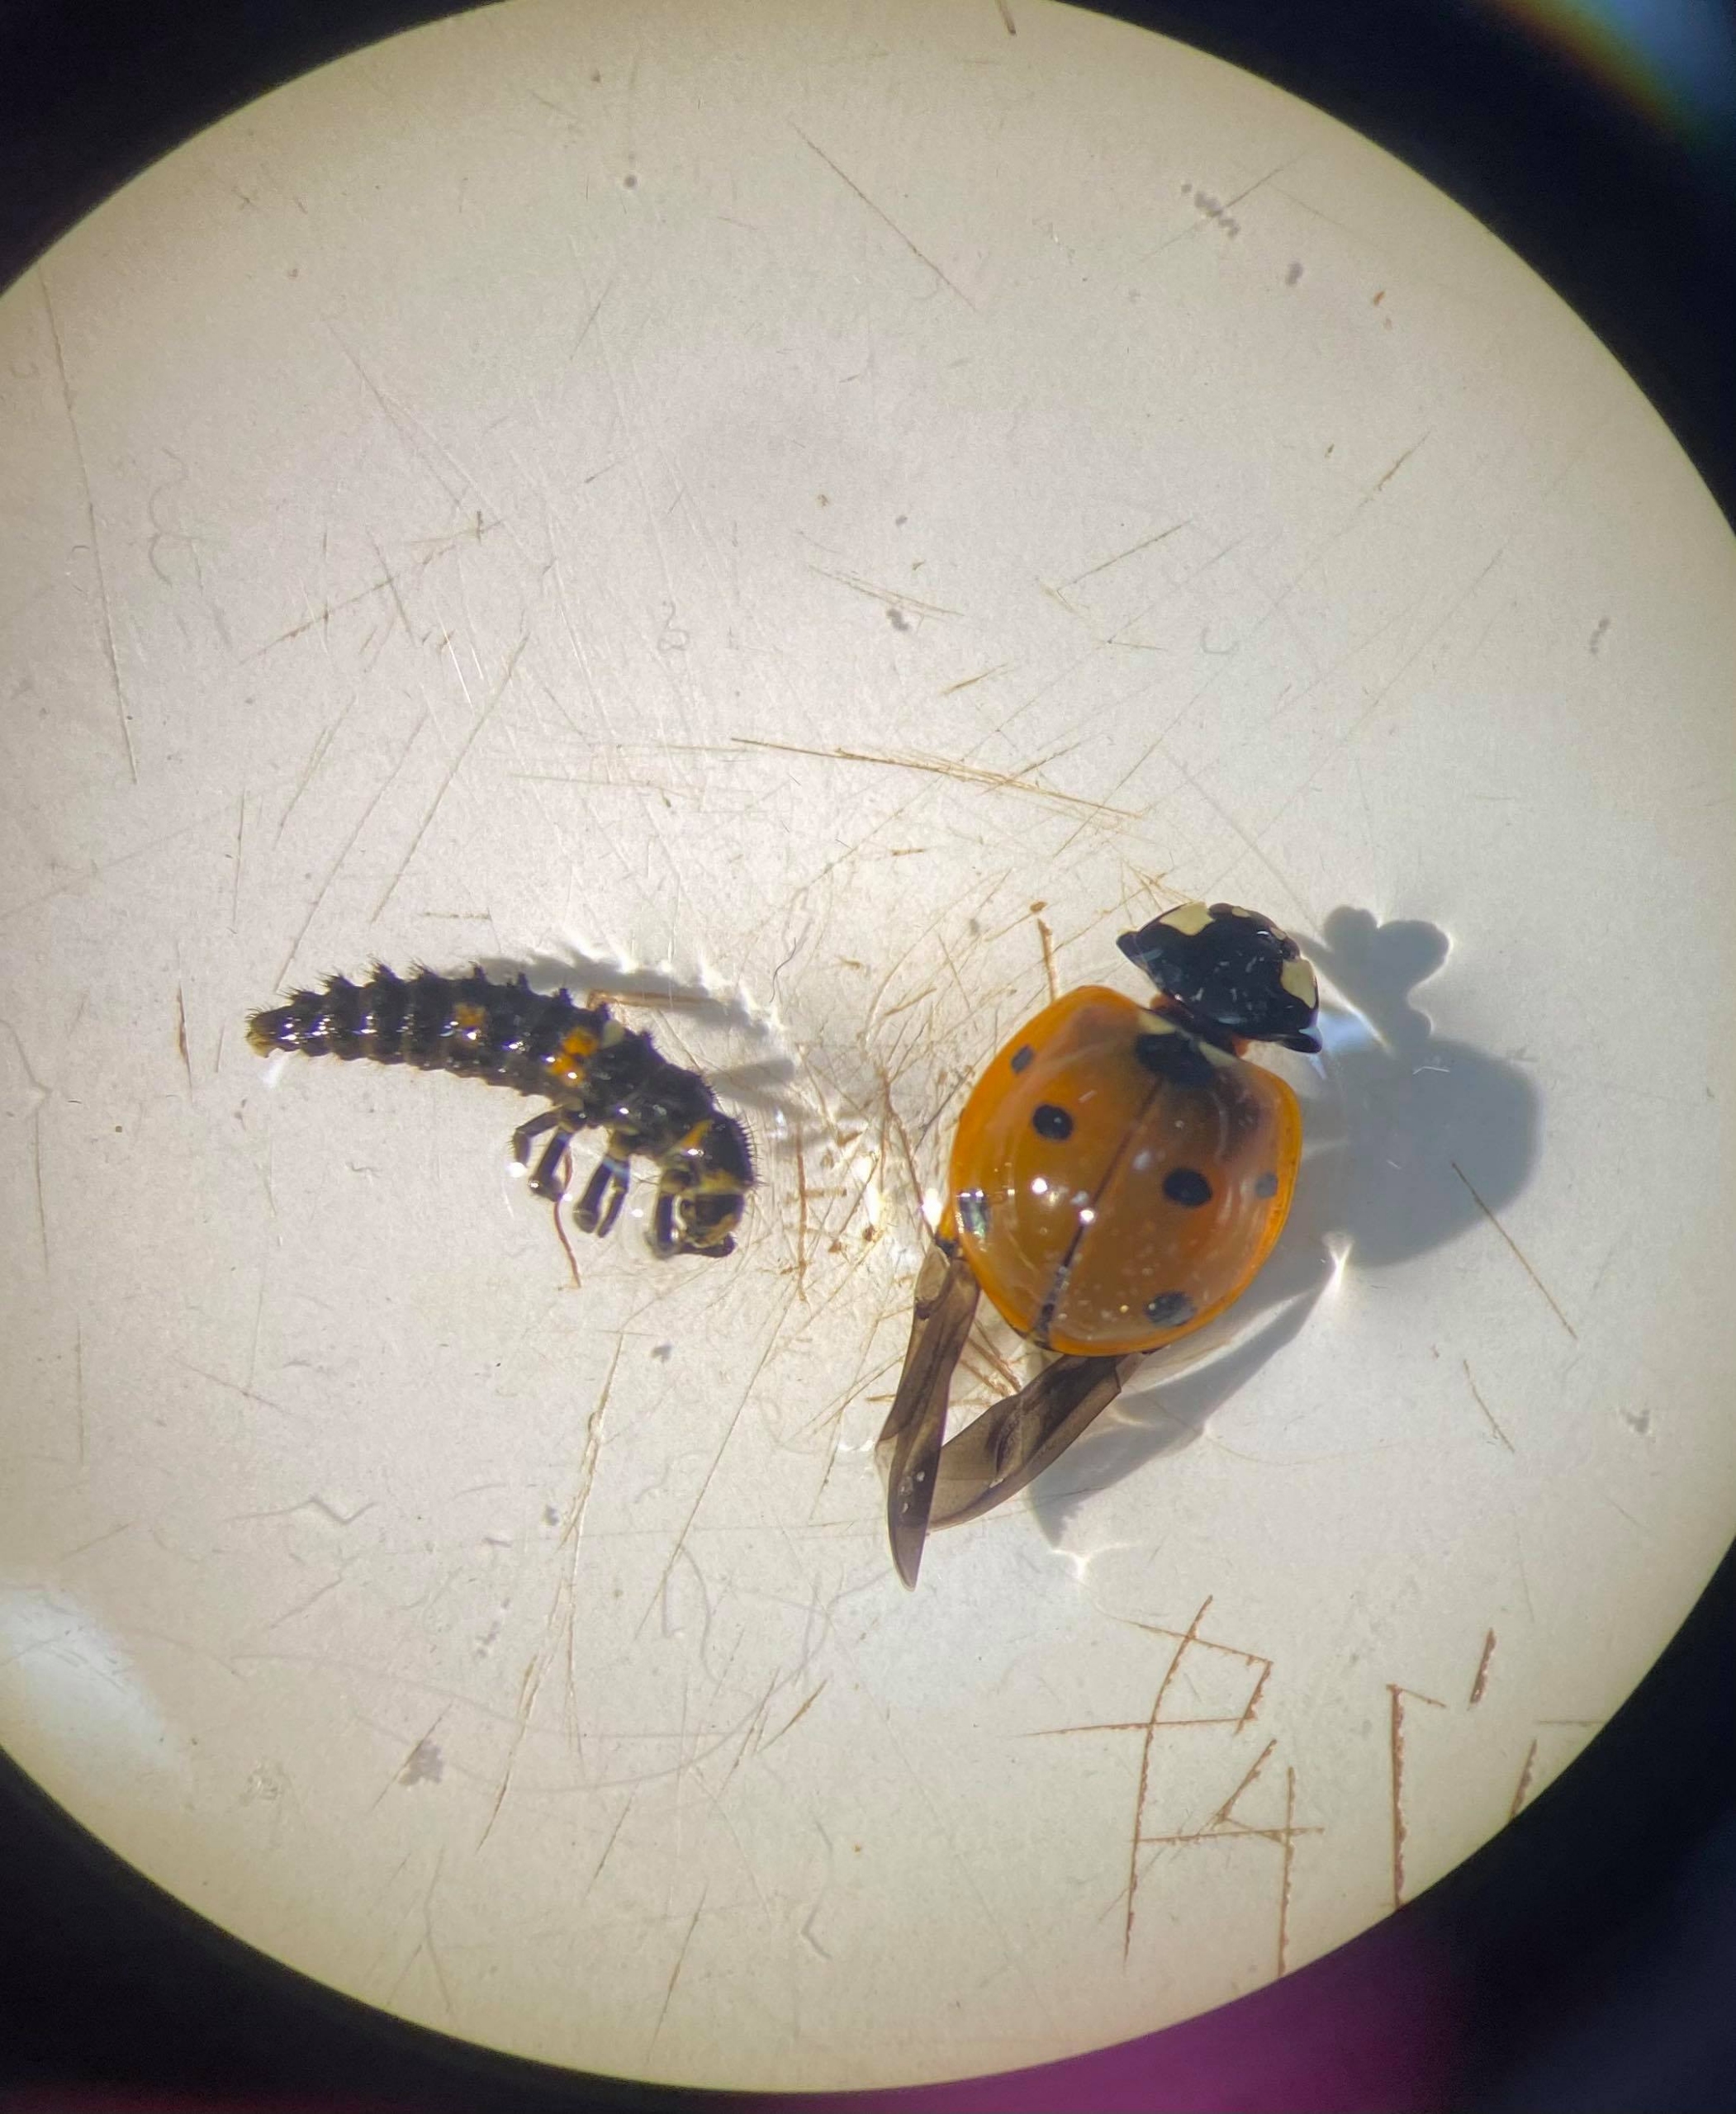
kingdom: Animalia
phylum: Arthropoda
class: Insecta
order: Coleoptera
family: Coccinellidae
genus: Coccinella
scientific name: Coccinella septempunctata
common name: Syvplettet mariehøne
